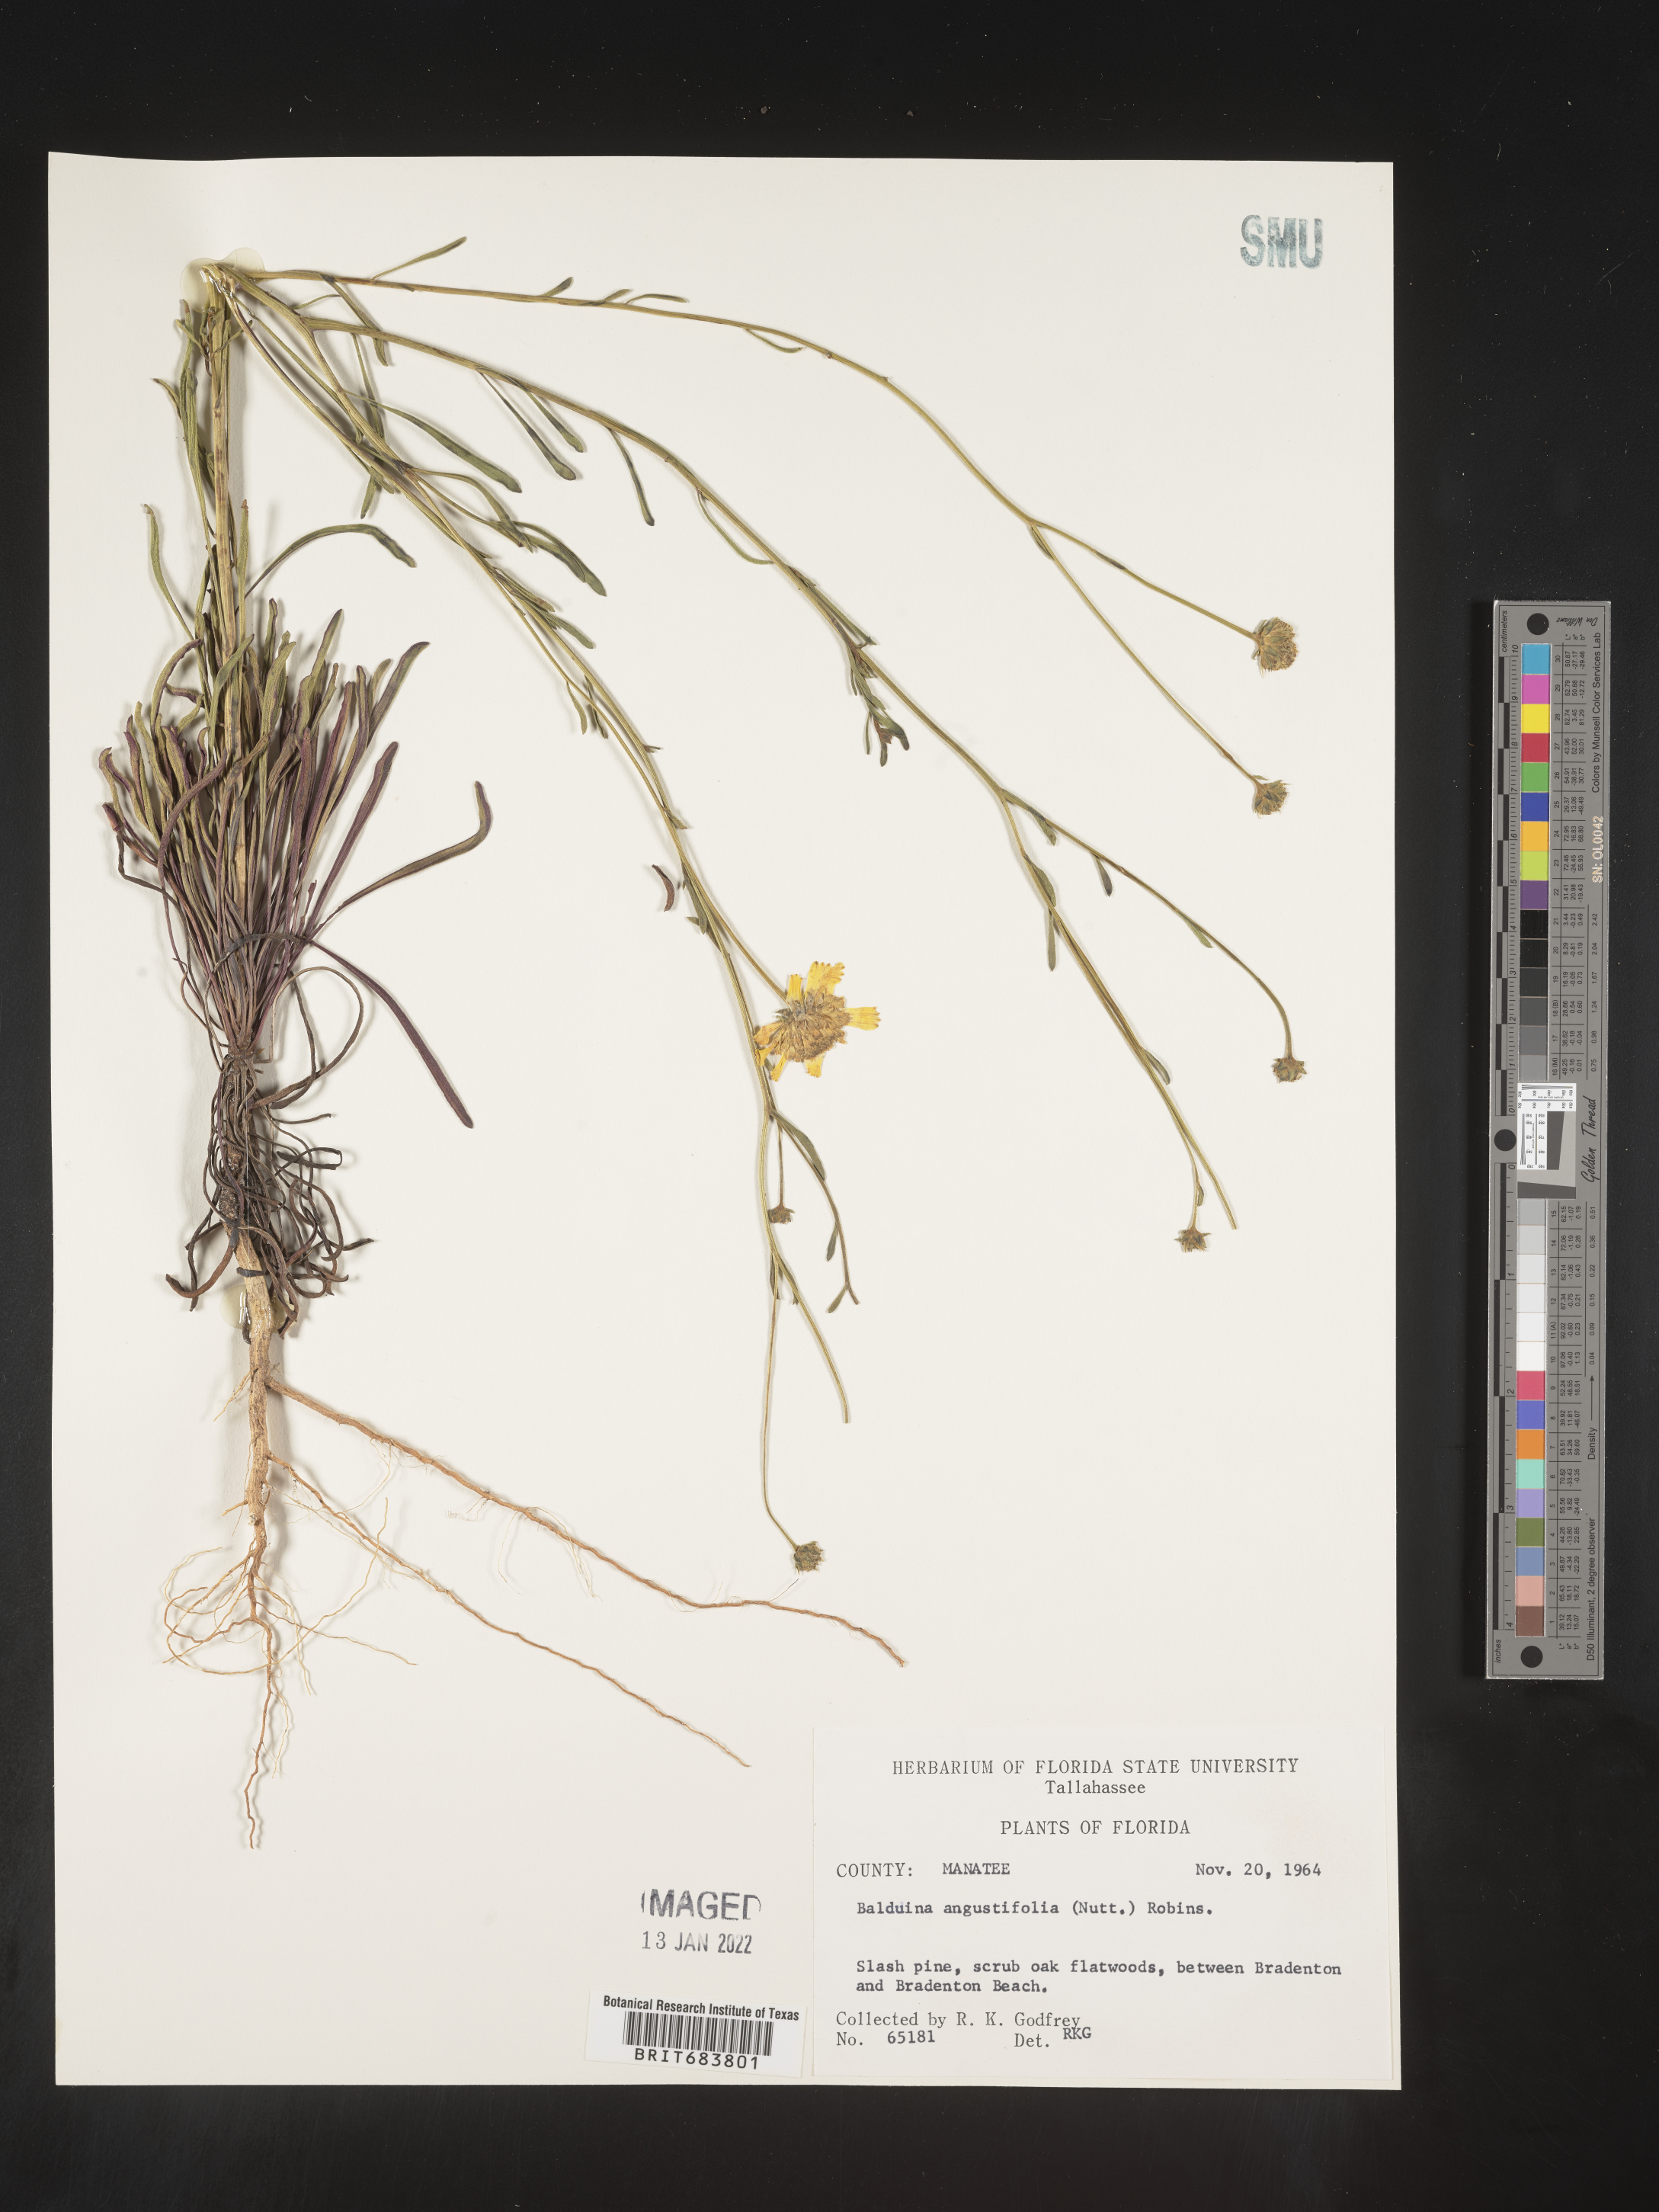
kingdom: Plantae
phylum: Tracheophyta
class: Magnoliopsida
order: Asterales
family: Asteraceae
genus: Balduina
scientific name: Balduina angustifolia
